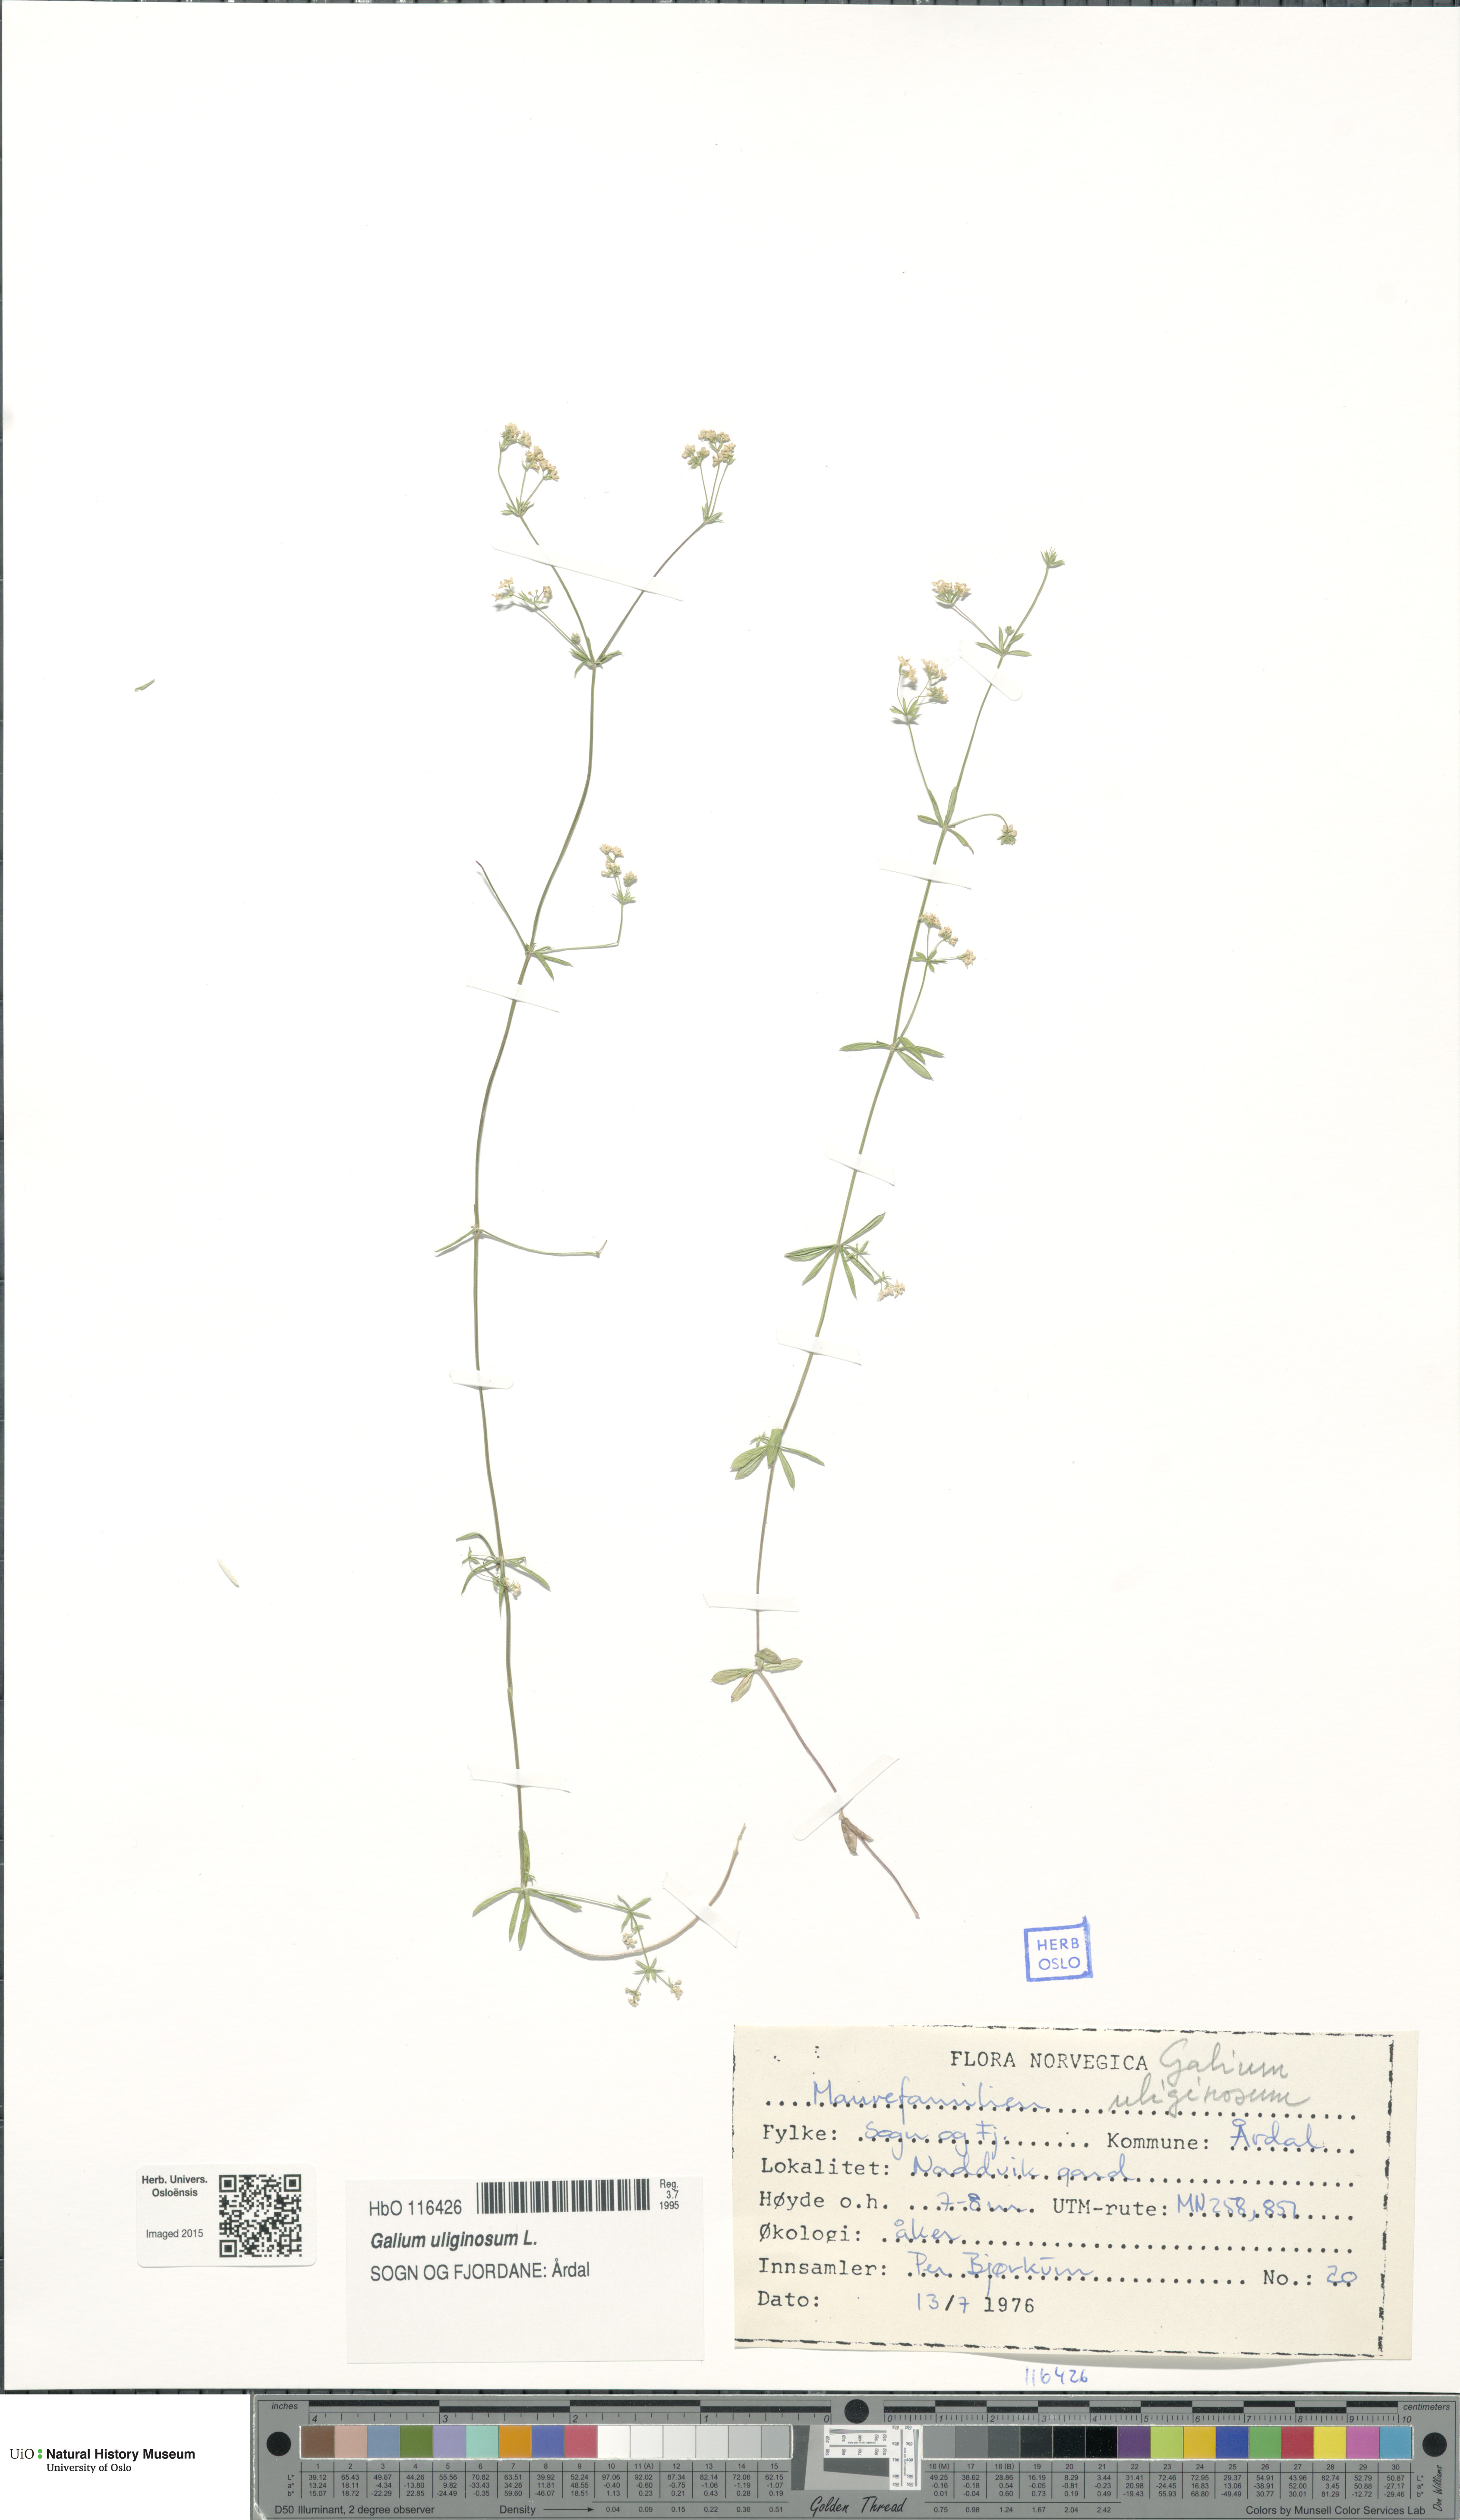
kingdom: Plantae
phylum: Tracheophyta
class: Magnoliopsida
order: Gentianales
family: Rubiaceae
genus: Galium
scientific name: Galium uliginosum
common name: Fen bedstraw
